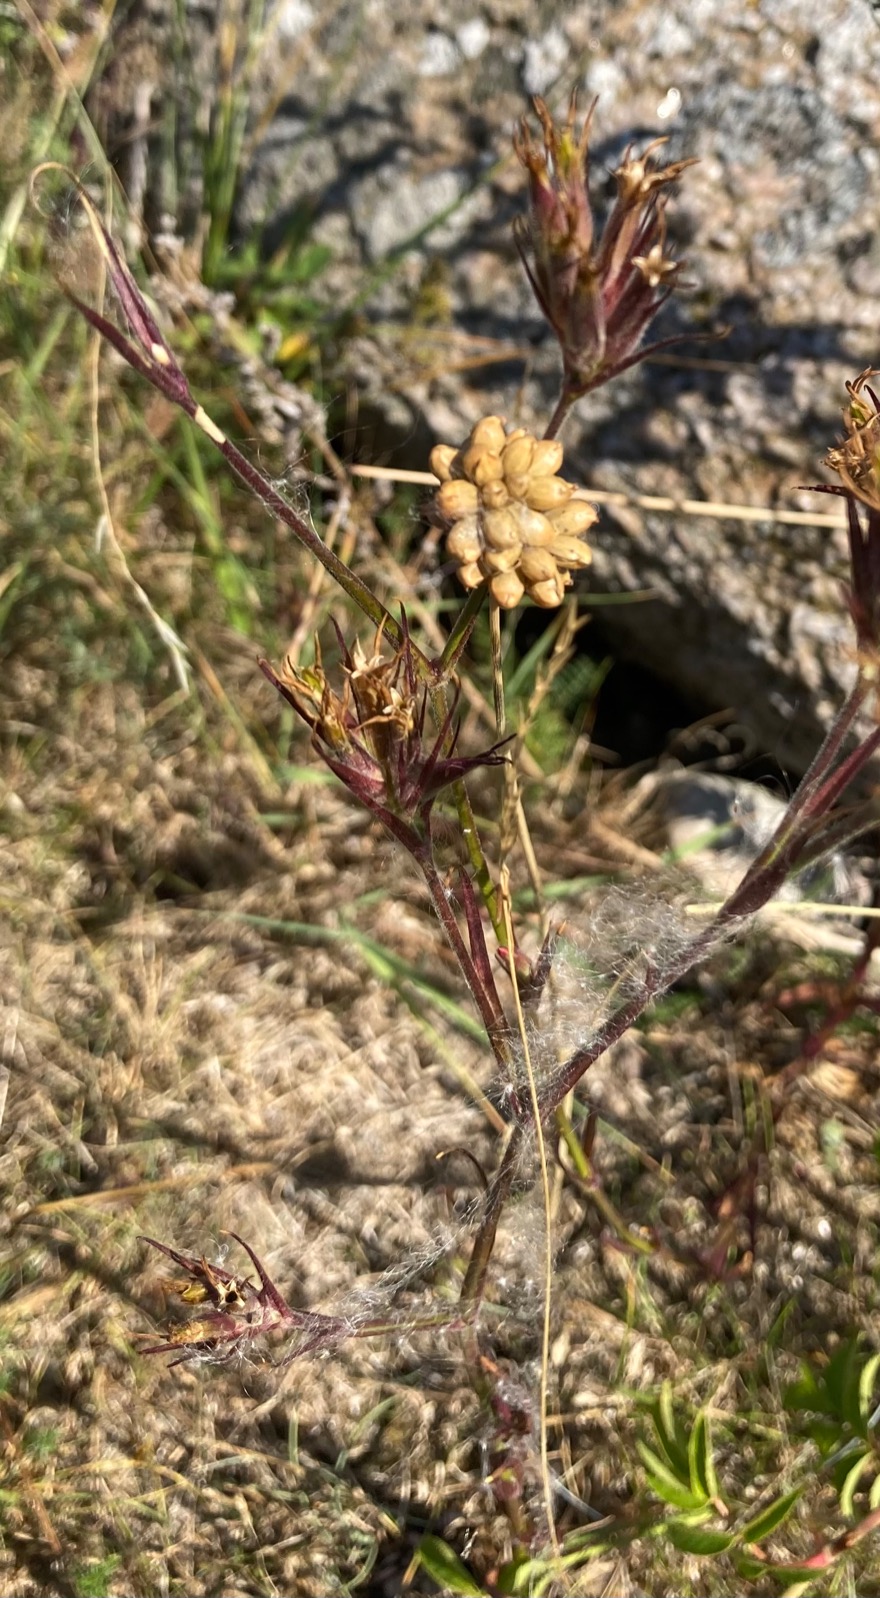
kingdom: Plantae
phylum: Tracheophyta
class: Liliopsida
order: Asparagales
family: Amaryllidaceae
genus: Allium
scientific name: Allium vineale
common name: Sand-løg
